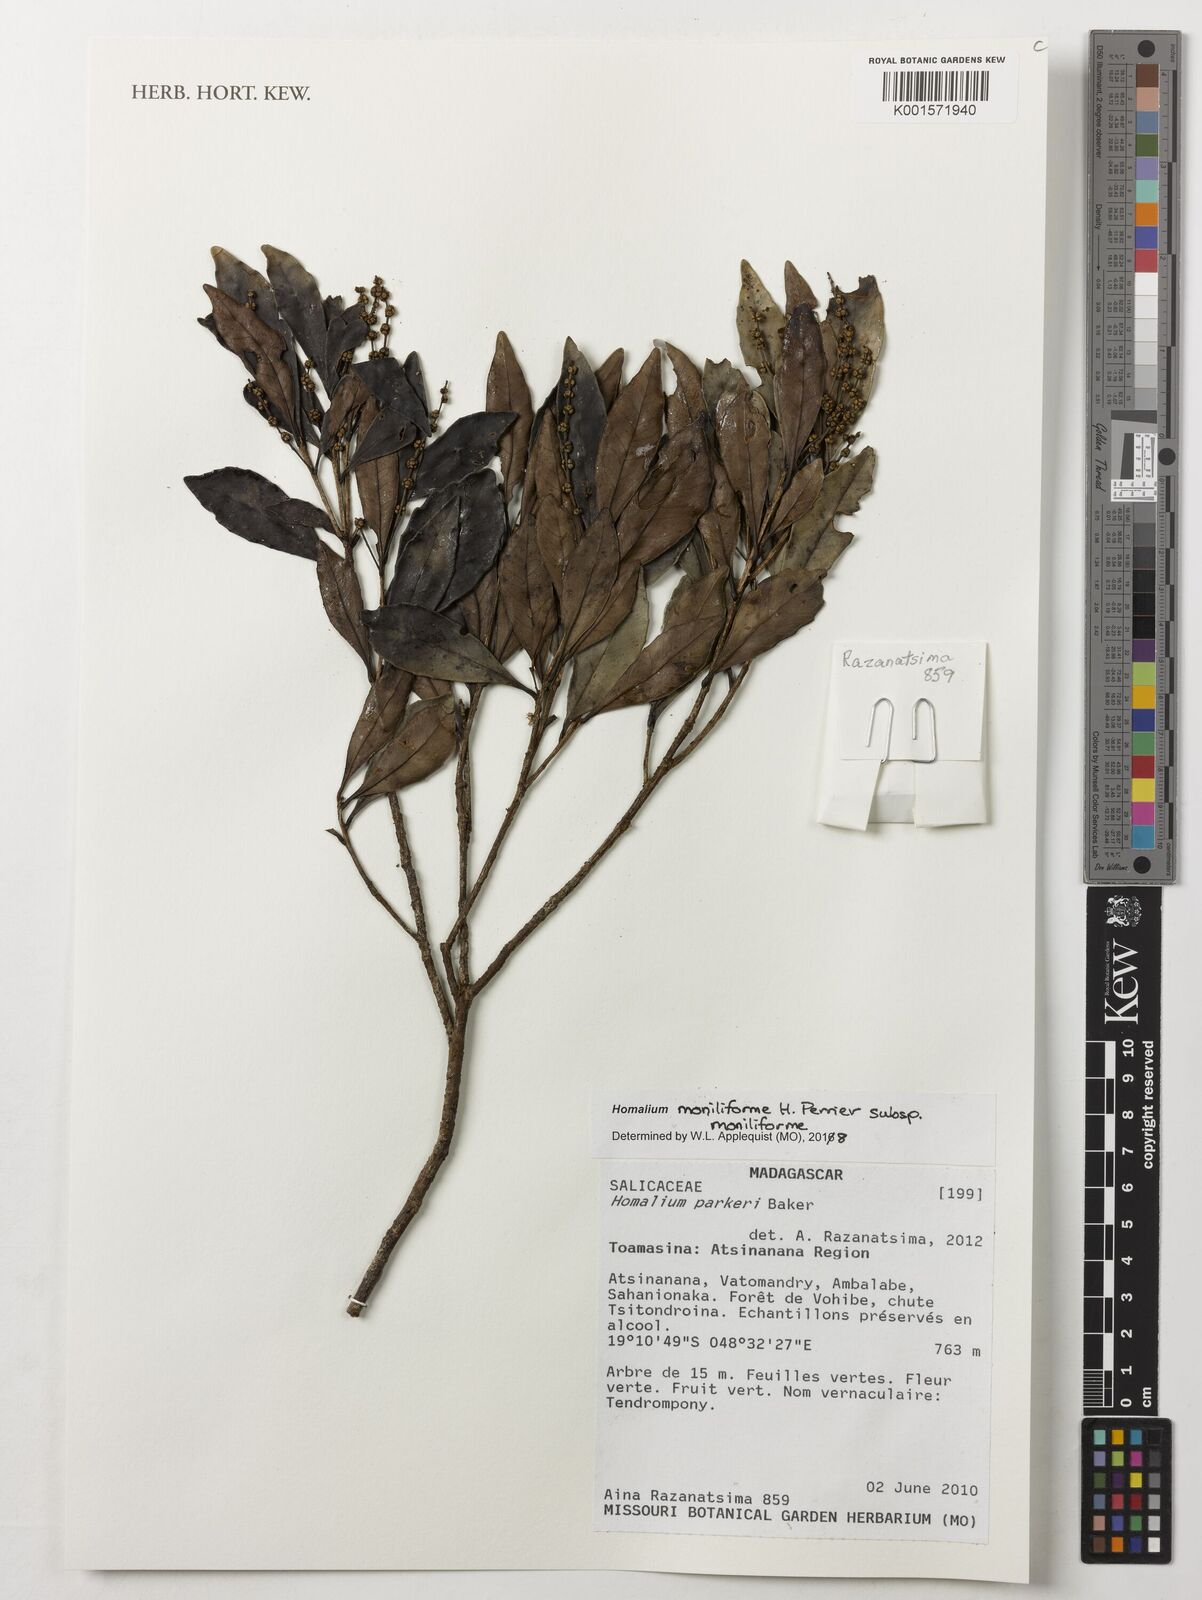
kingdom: Plantae
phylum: Tracheophyta
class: Magnoliopsida
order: Malpighiales
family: Salicaceae
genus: Homalium
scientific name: Homalium moniliforme
